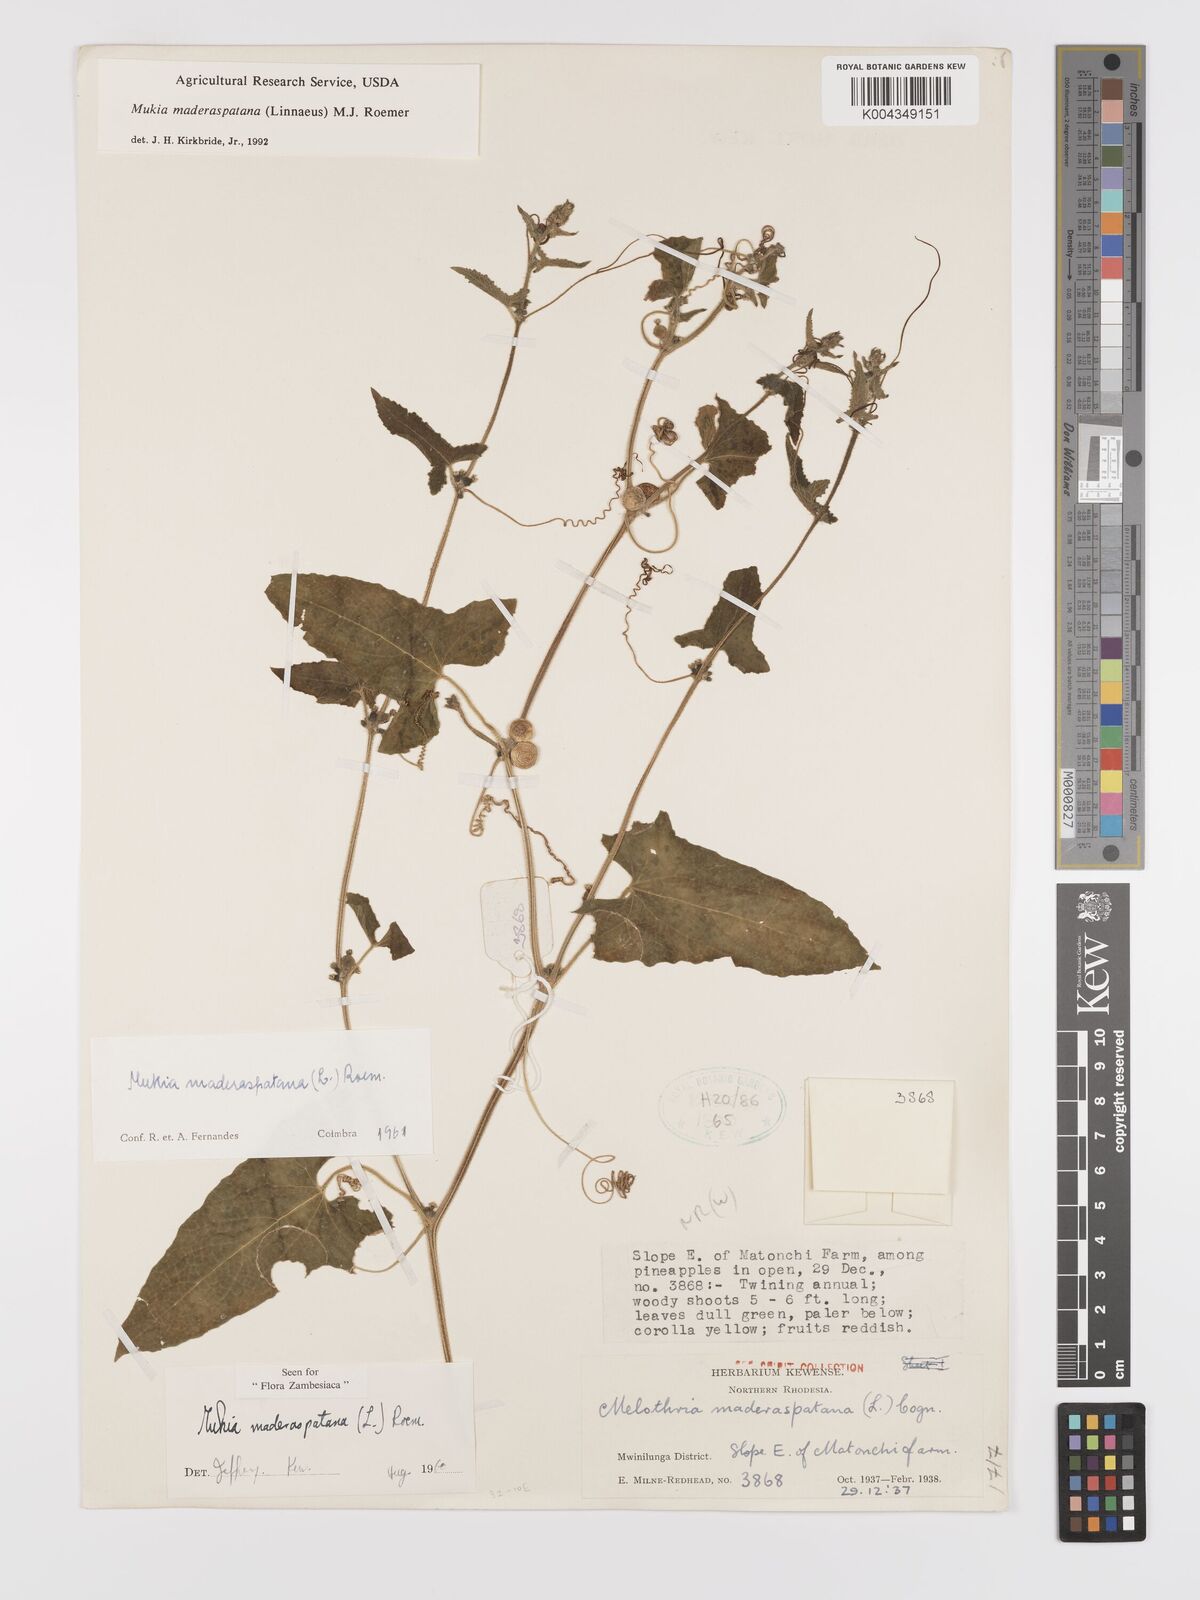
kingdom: Plantae
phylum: Tracheophyta
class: Magnoliopsida
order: Cucurbitales
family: Cucurbitaceae
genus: Cucumis
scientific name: Cucumis maderaspatanus
